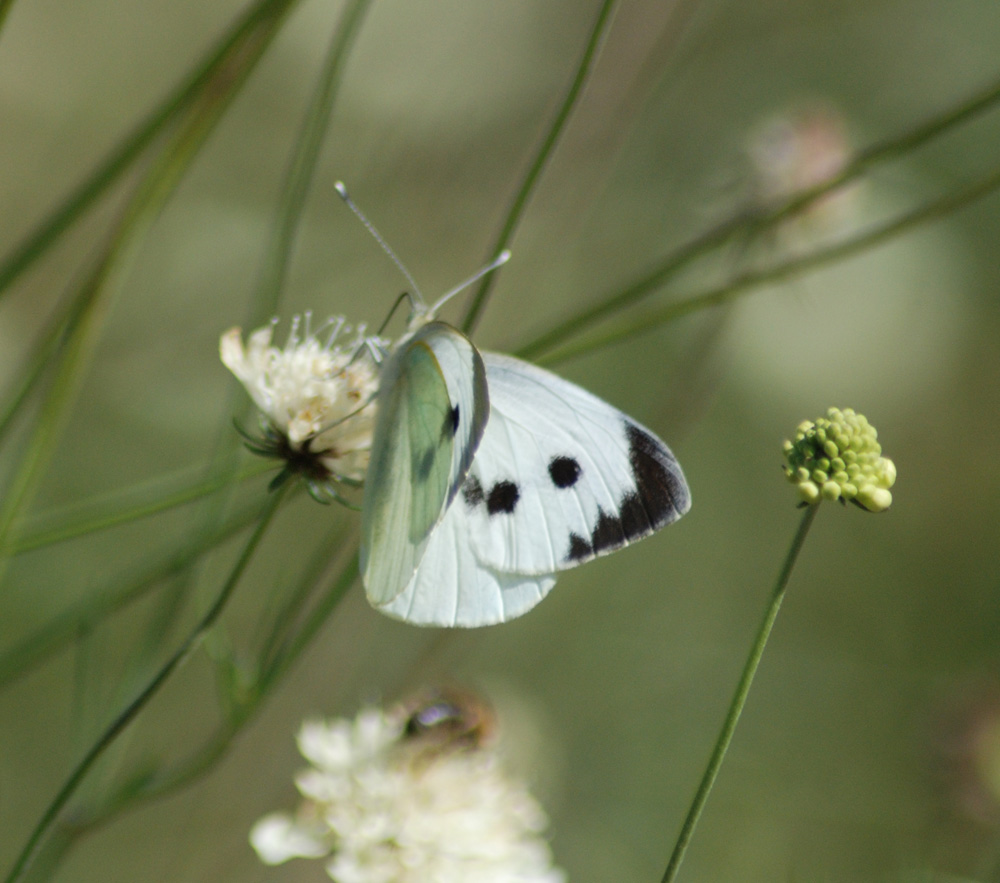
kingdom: Animalia
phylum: Arthropoda
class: Insecta
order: Lepidoptera
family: Pieridae
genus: Pieris
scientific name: Pieris brassicae
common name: Large white
